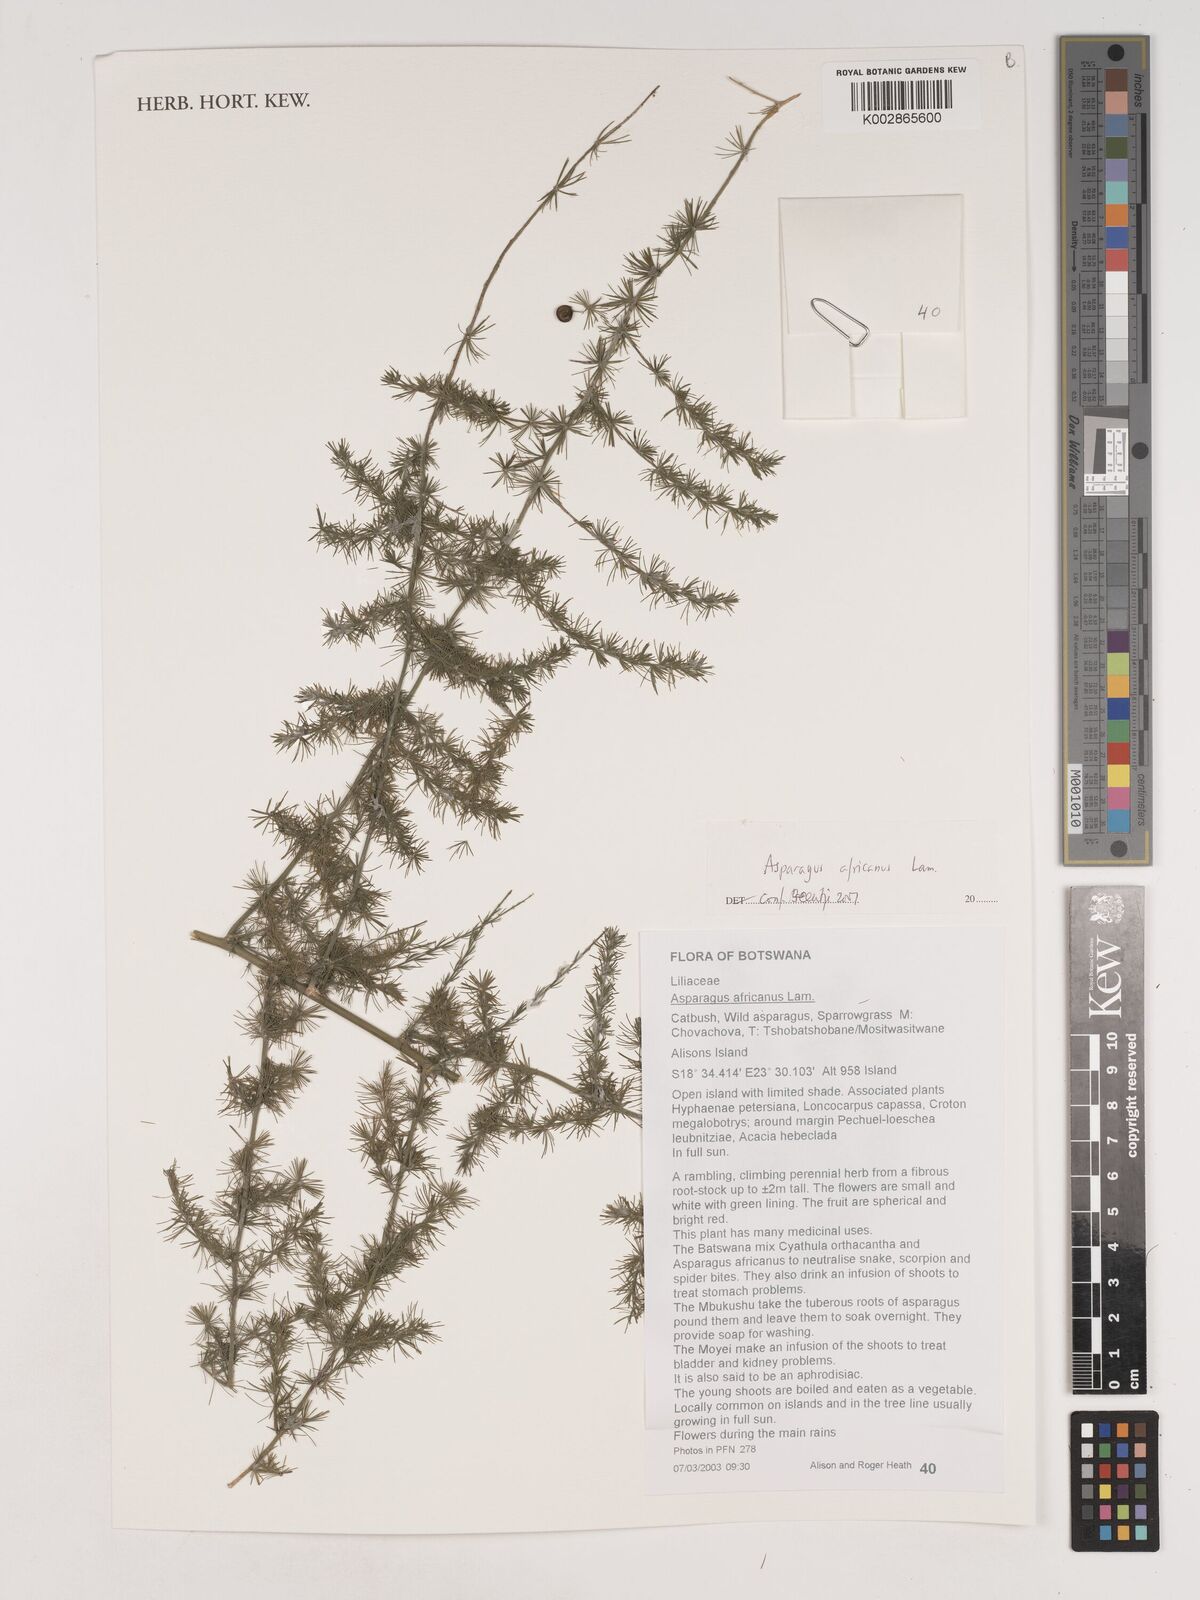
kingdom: Plantae
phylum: Tracheophyta
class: Liliopsida
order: Asparagales
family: Asparagaceae
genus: Asparagus
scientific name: Asparagus africanus
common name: Asparagus-fern
